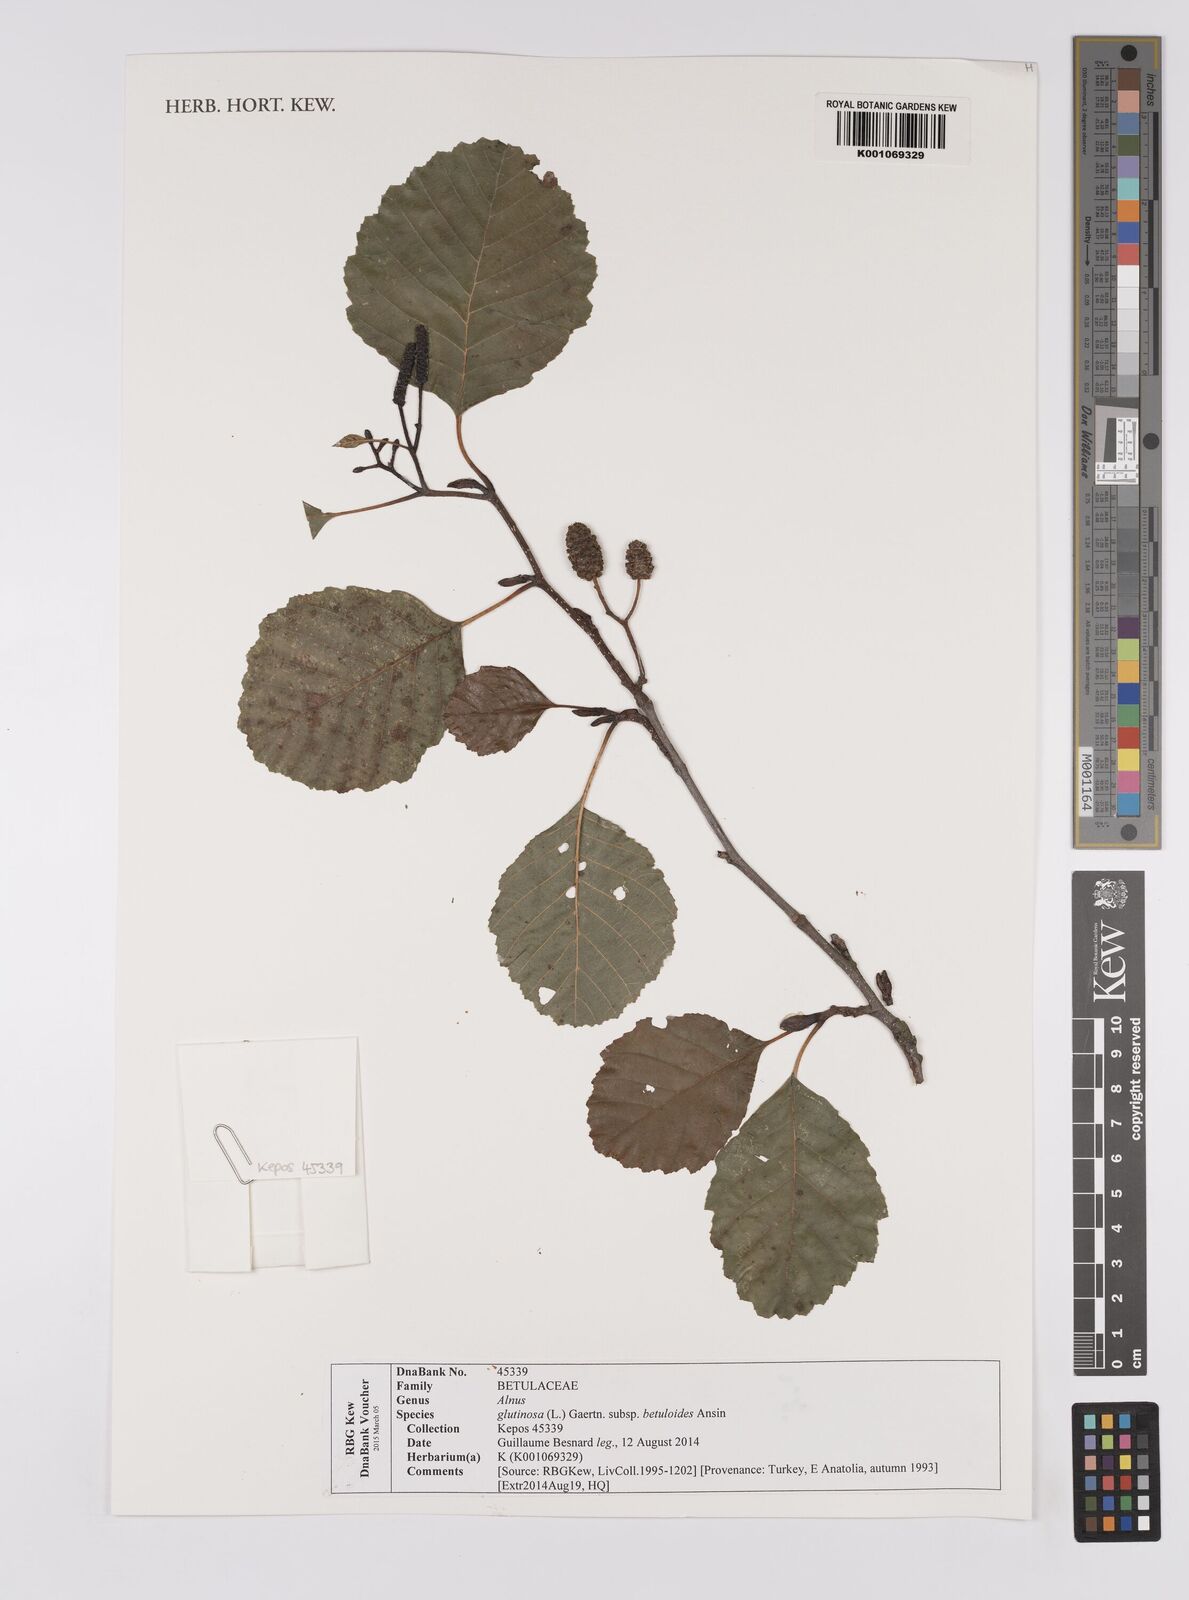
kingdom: Plantae
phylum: Tracheophyta
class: Magnoliopsida
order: Fagales
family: Betulaceae
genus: Alnus
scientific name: Alnus glutinosa
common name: Black alder
